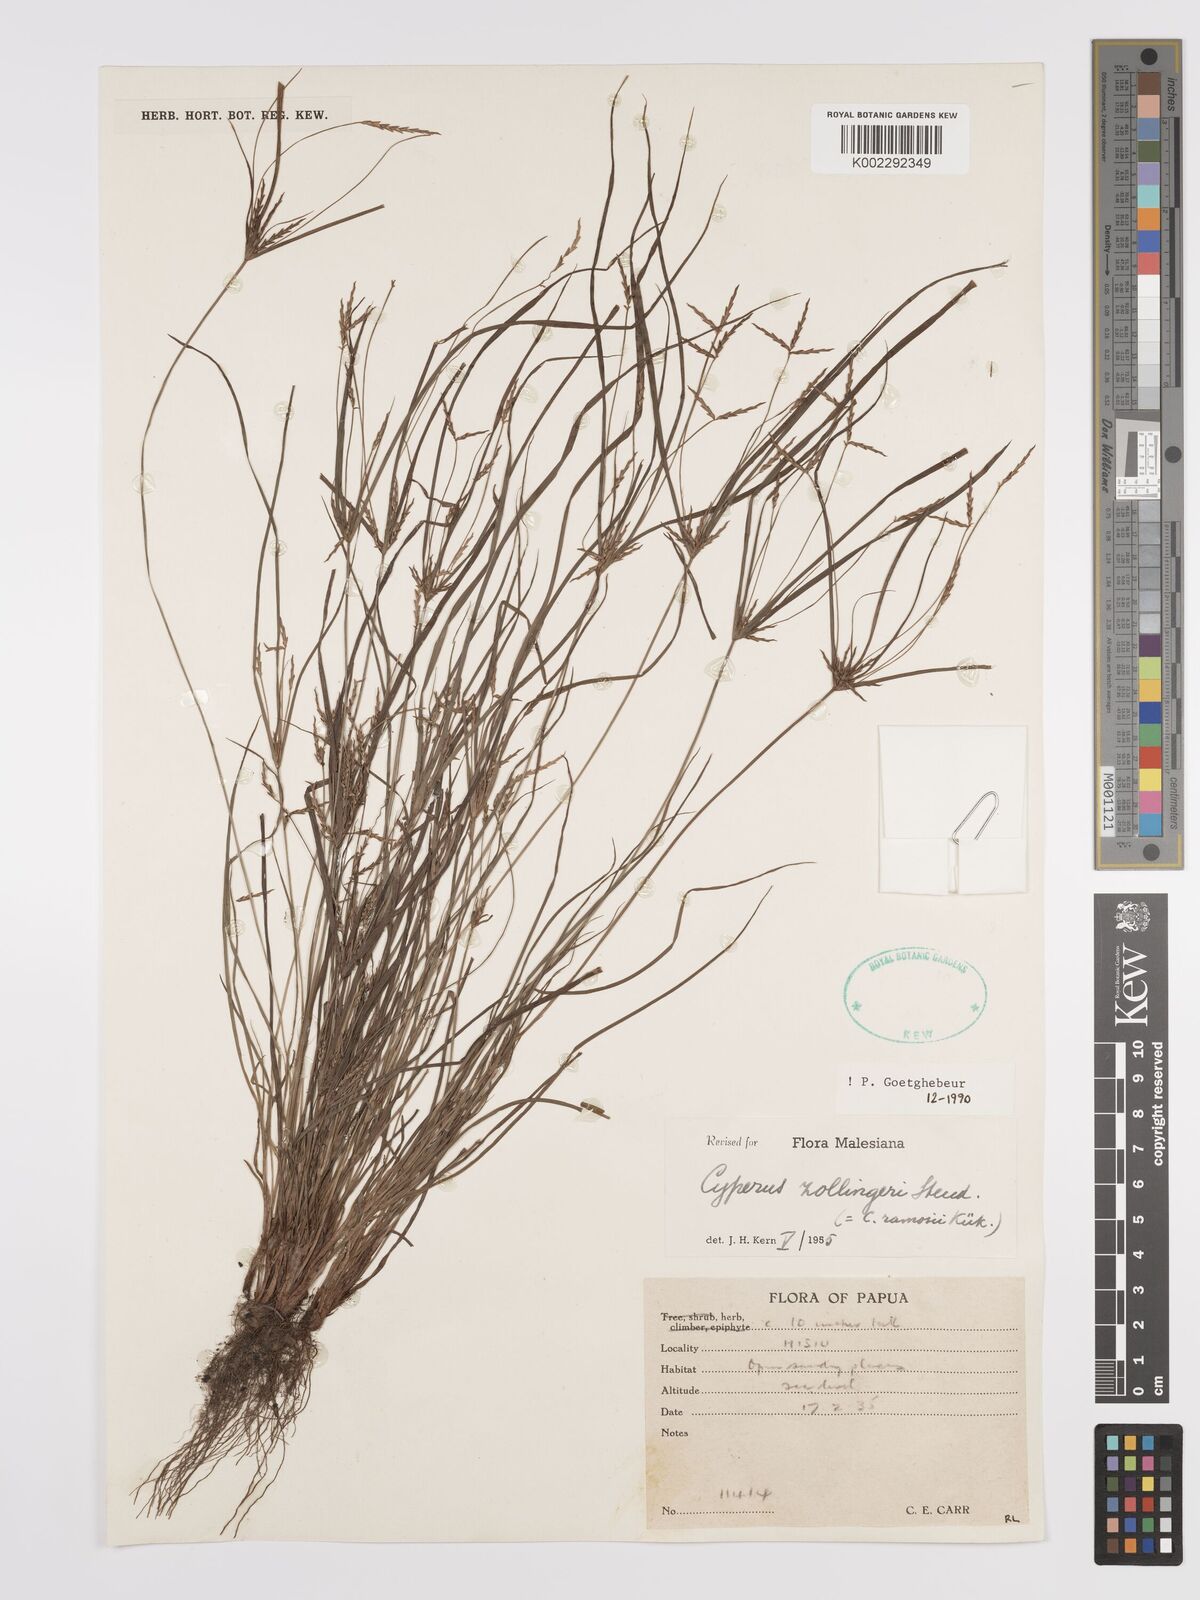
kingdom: Plantae
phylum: Tracheophyta
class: Liliopsida
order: Poales
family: Cyperaceae
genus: Cyperus
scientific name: Cyperus zollingeri
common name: Roadside flatsedge
